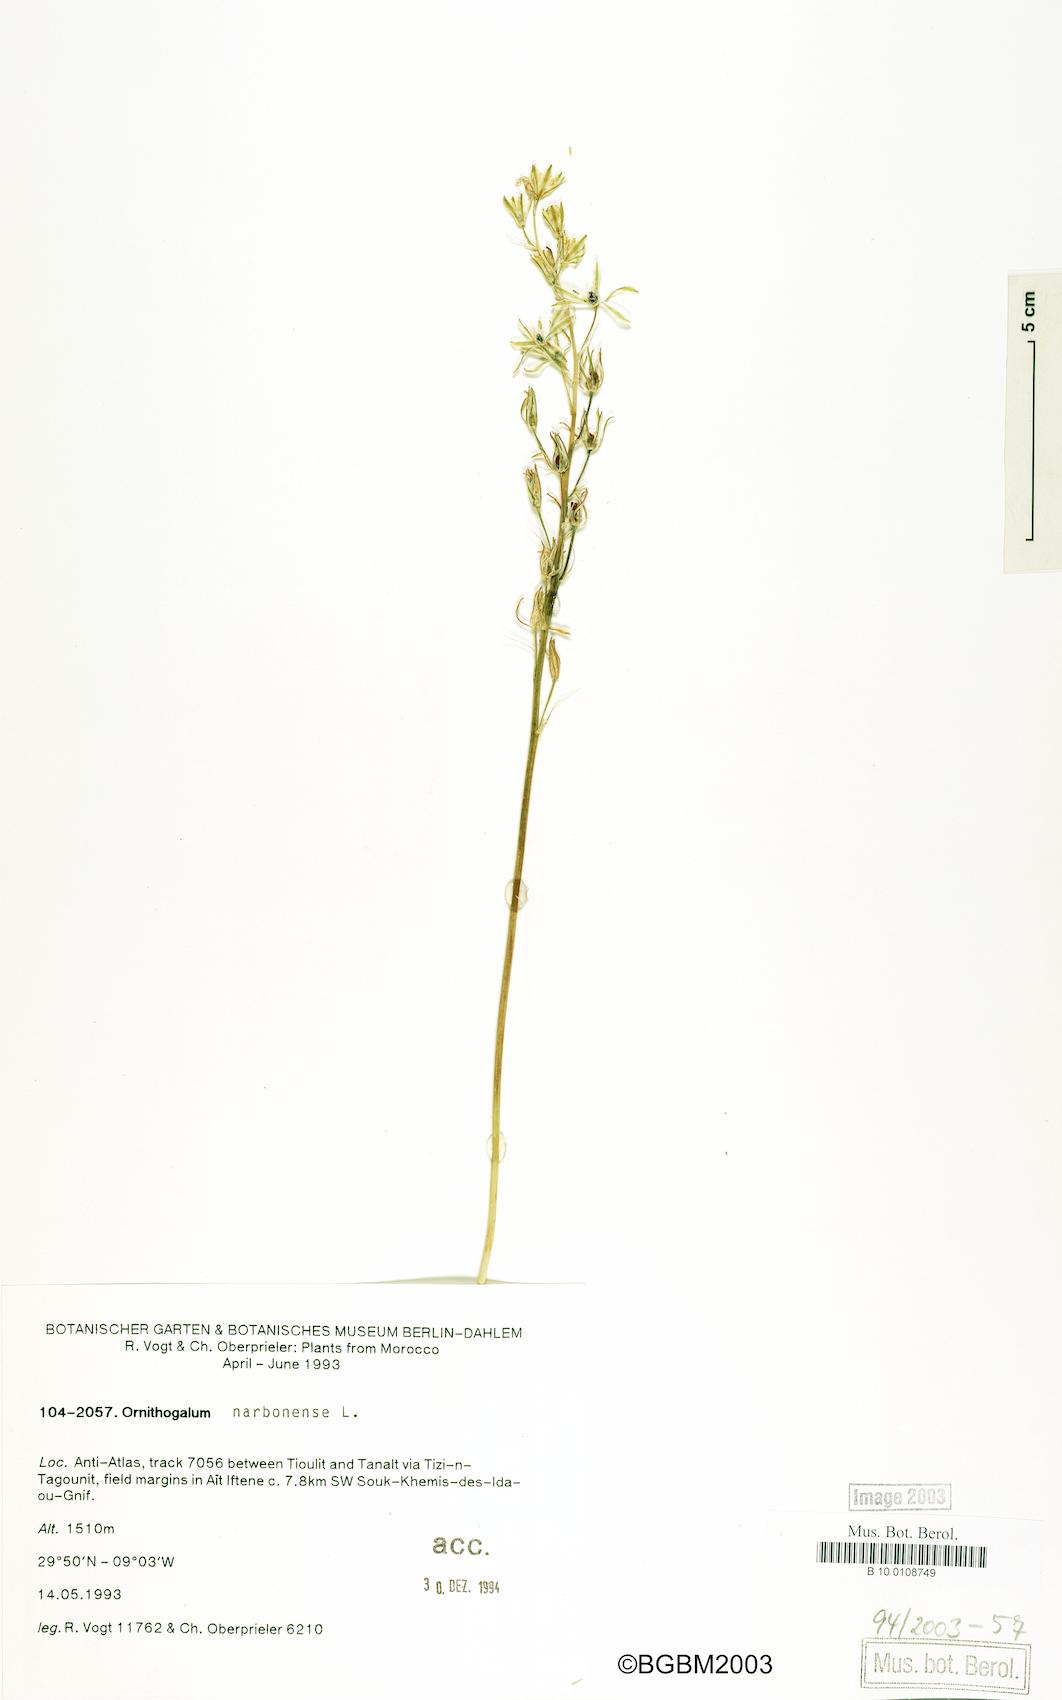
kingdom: Plantae
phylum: Tracheophyta
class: Liliopsida
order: Asparagales
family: Asparagaceae
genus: Ornithogalum
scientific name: Ornithogalum narbonense
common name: Bath-asparagus
